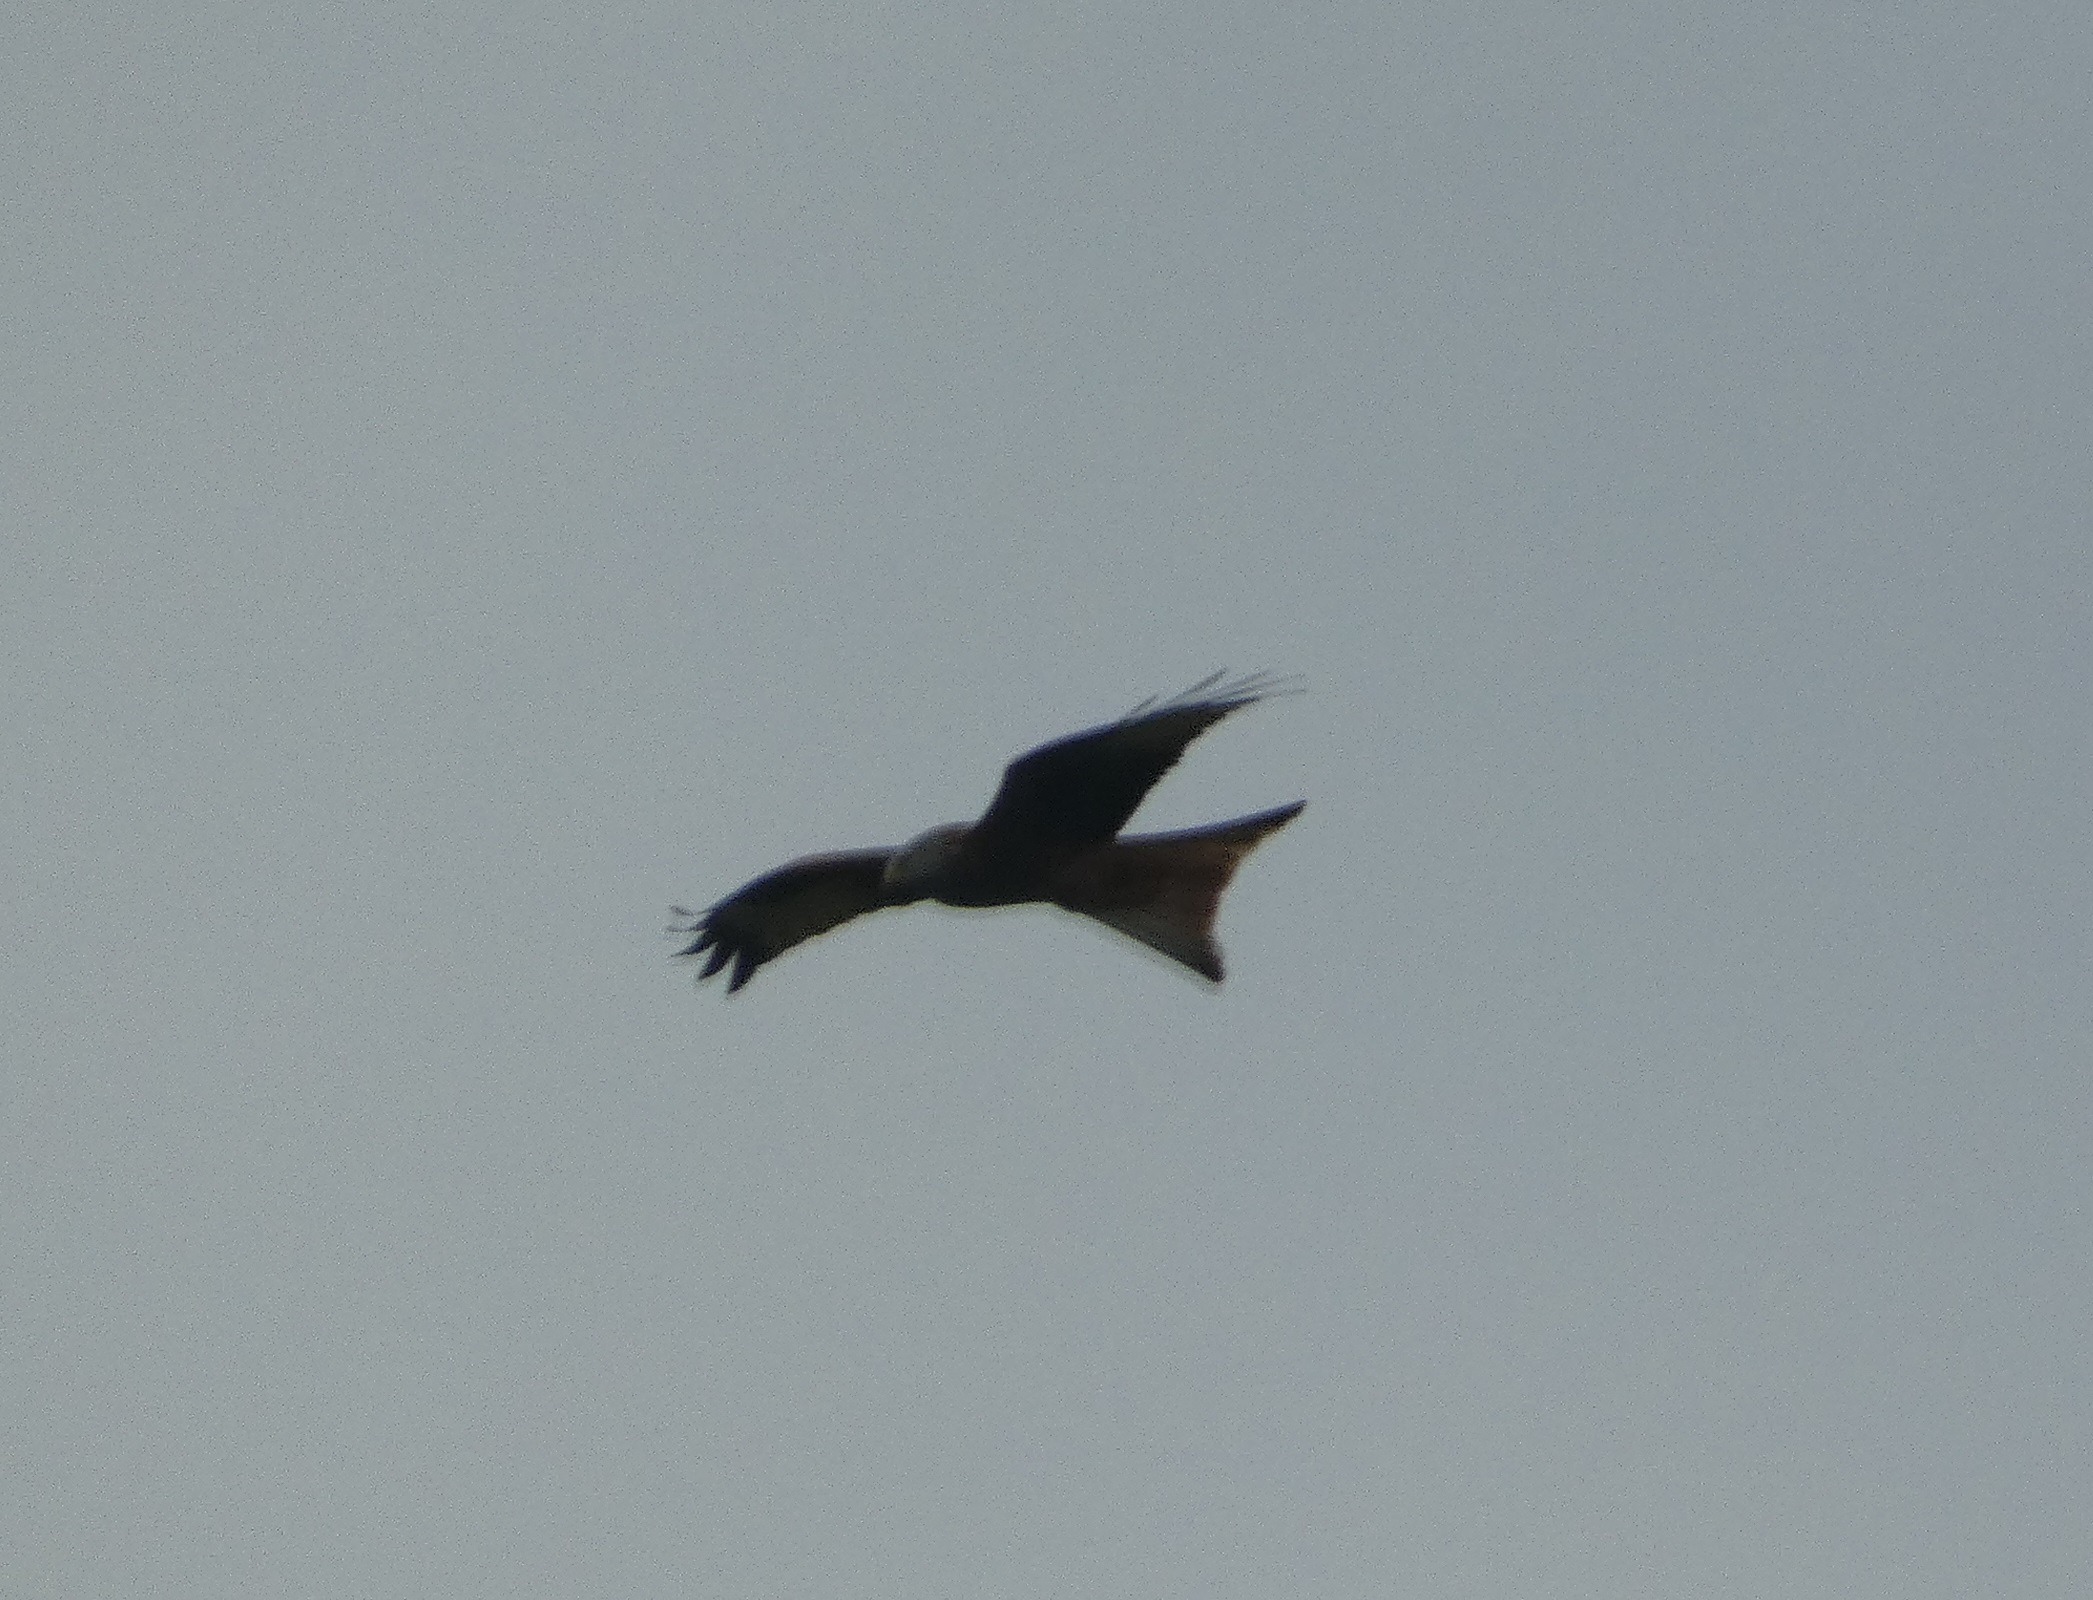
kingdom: Animalia
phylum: Chordata
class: Aves
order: Accipitriformes
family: Accipitridae
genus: Milvus
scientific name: Milvus milvus
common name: Rød glente
